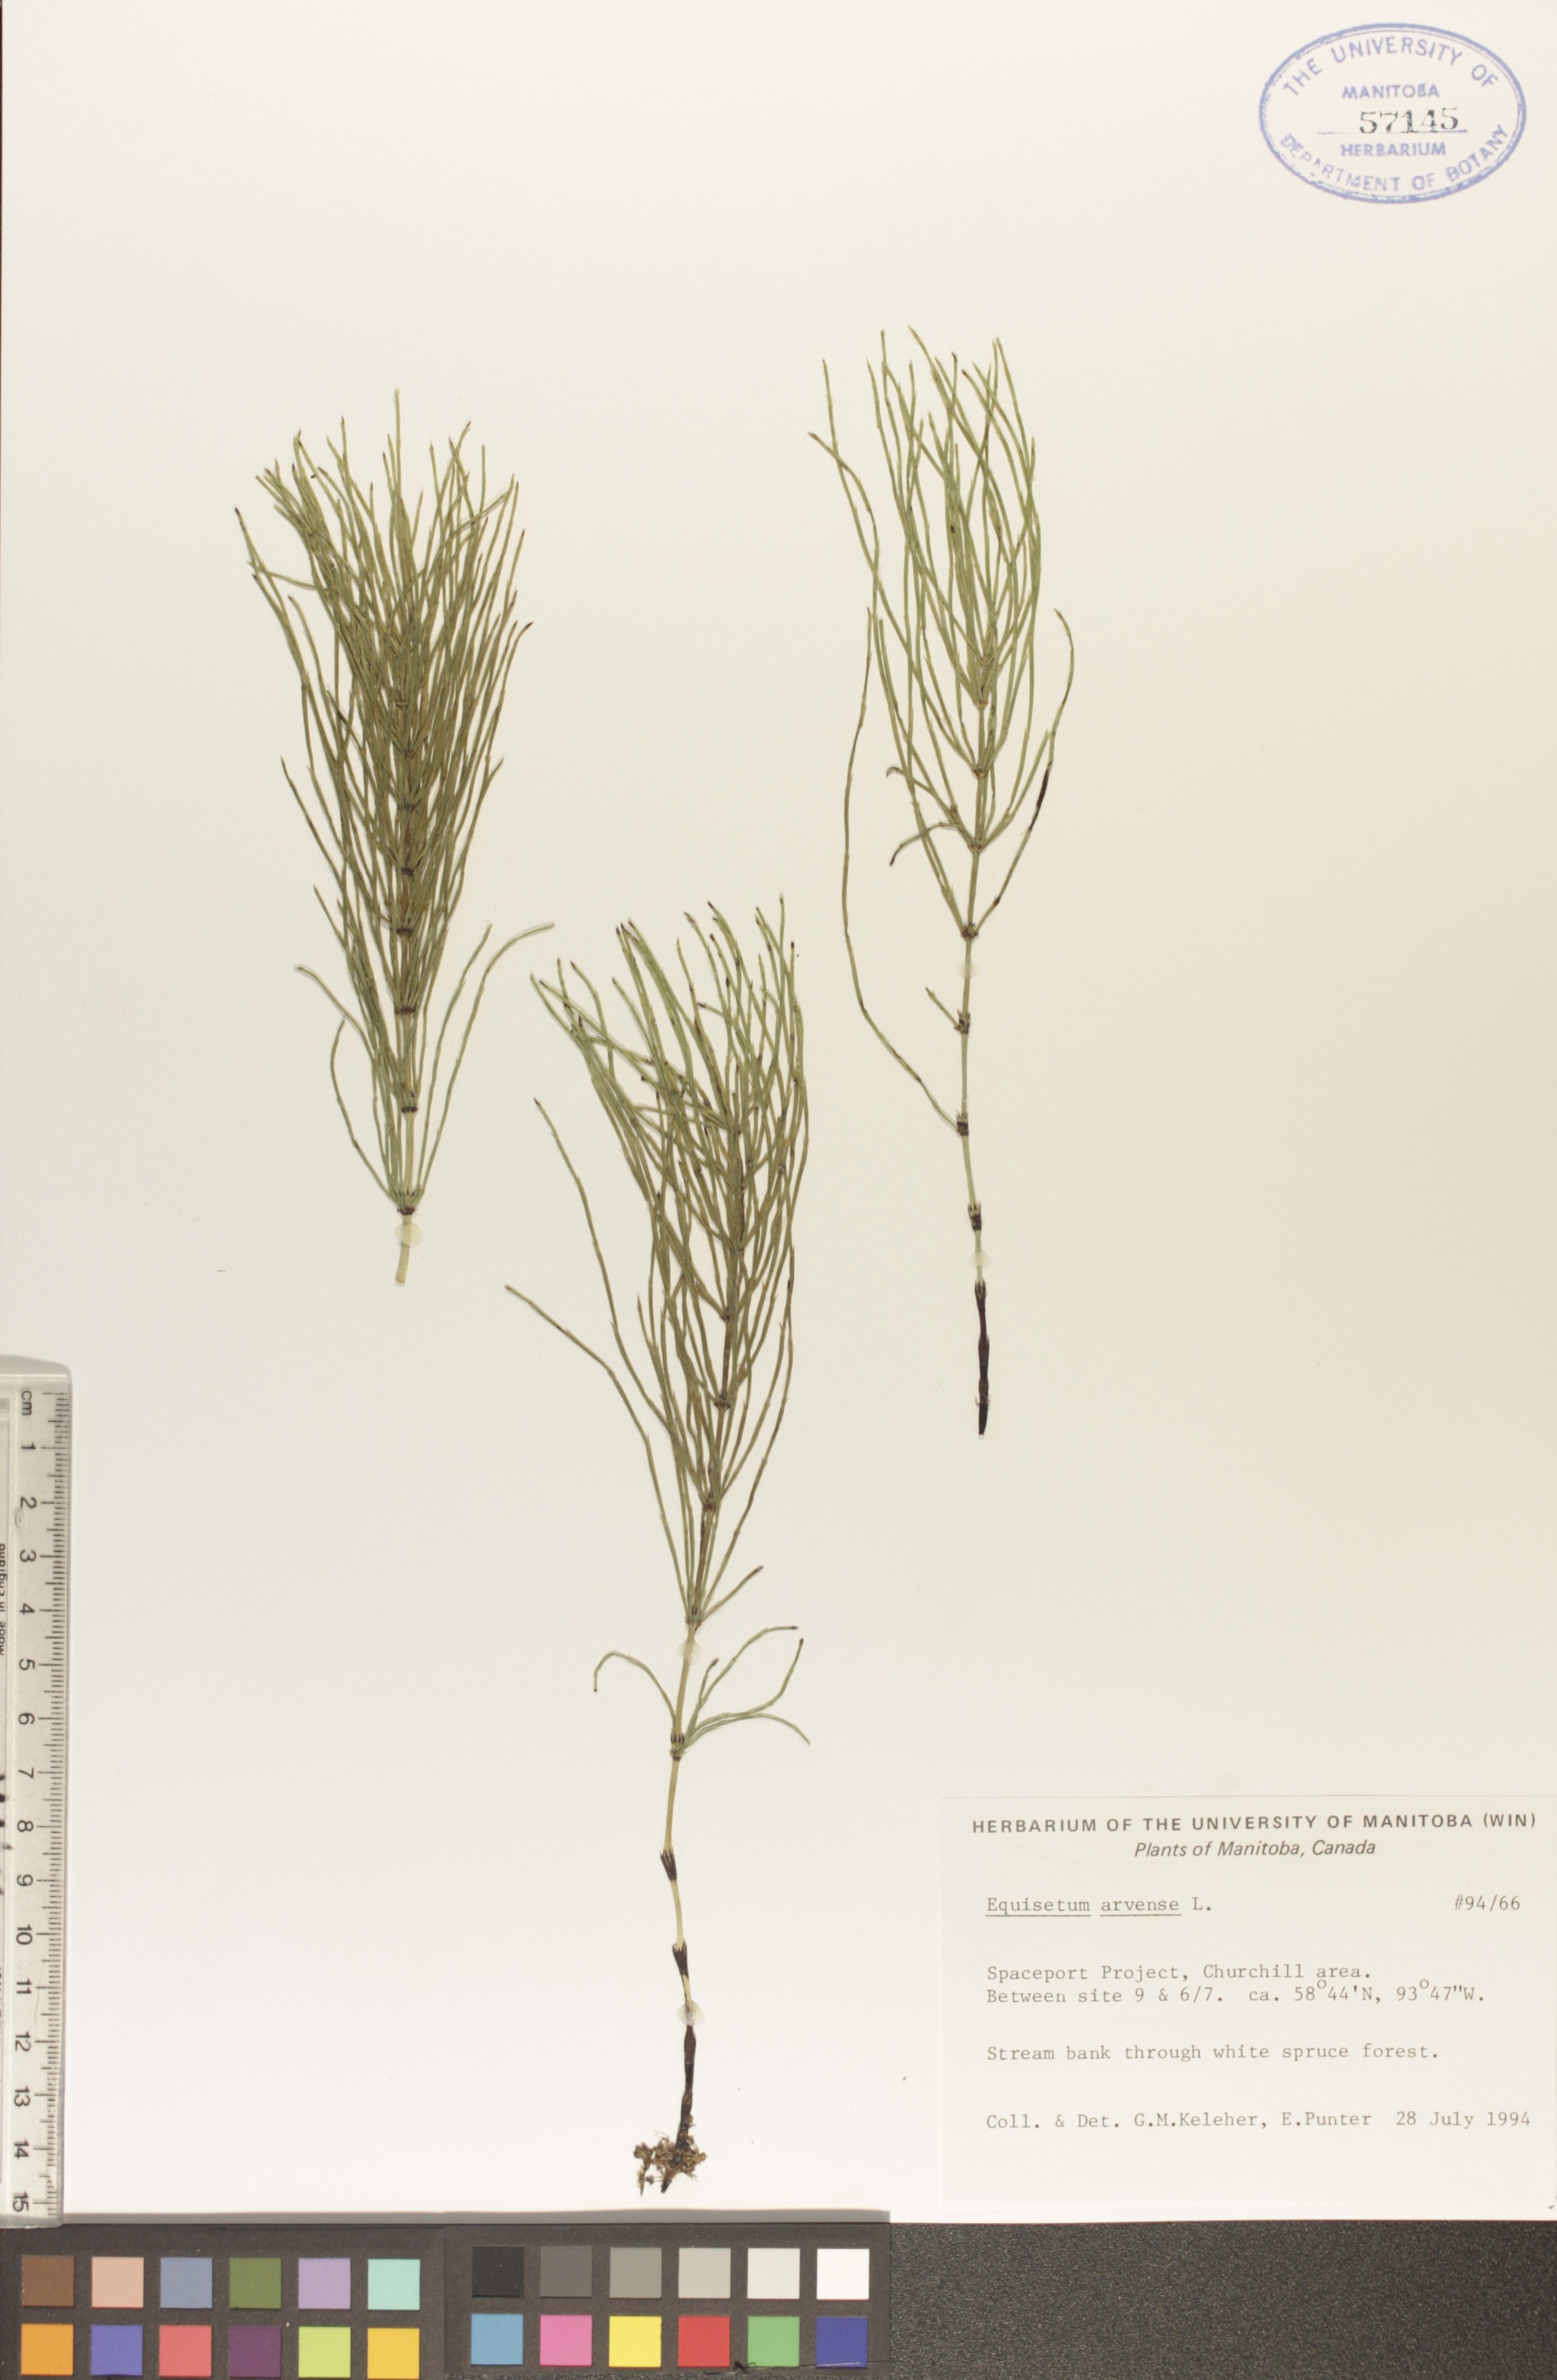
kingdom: Plantae
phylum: Tracheophyta
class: Polypodiopsida
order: Equisetales
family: Equisetaceae
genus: Equisetum
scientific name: Equisetum arvense
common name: Field horsetail
